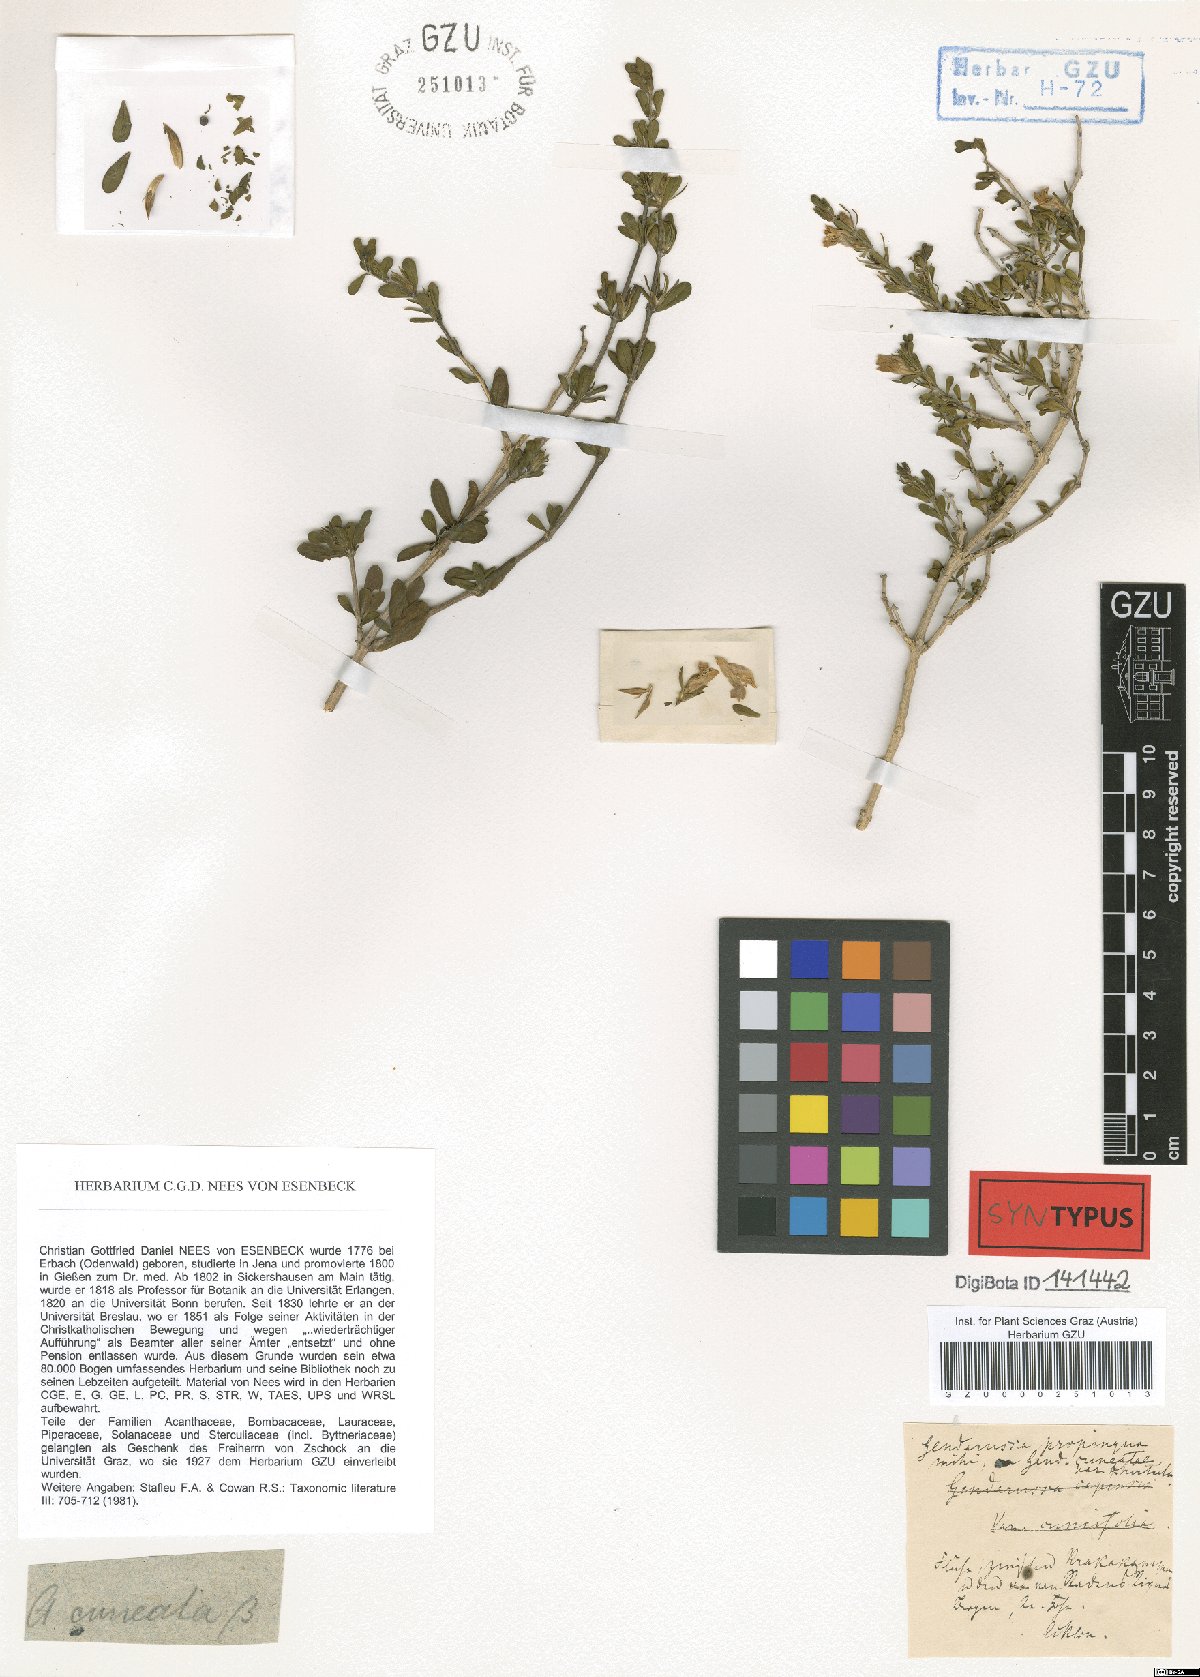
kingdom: Plantae
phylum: Tracheophyta
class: Magnoliopsida
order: Lamiales
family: Acanthaceae
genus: Justicia
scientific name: Justicia cuneata
